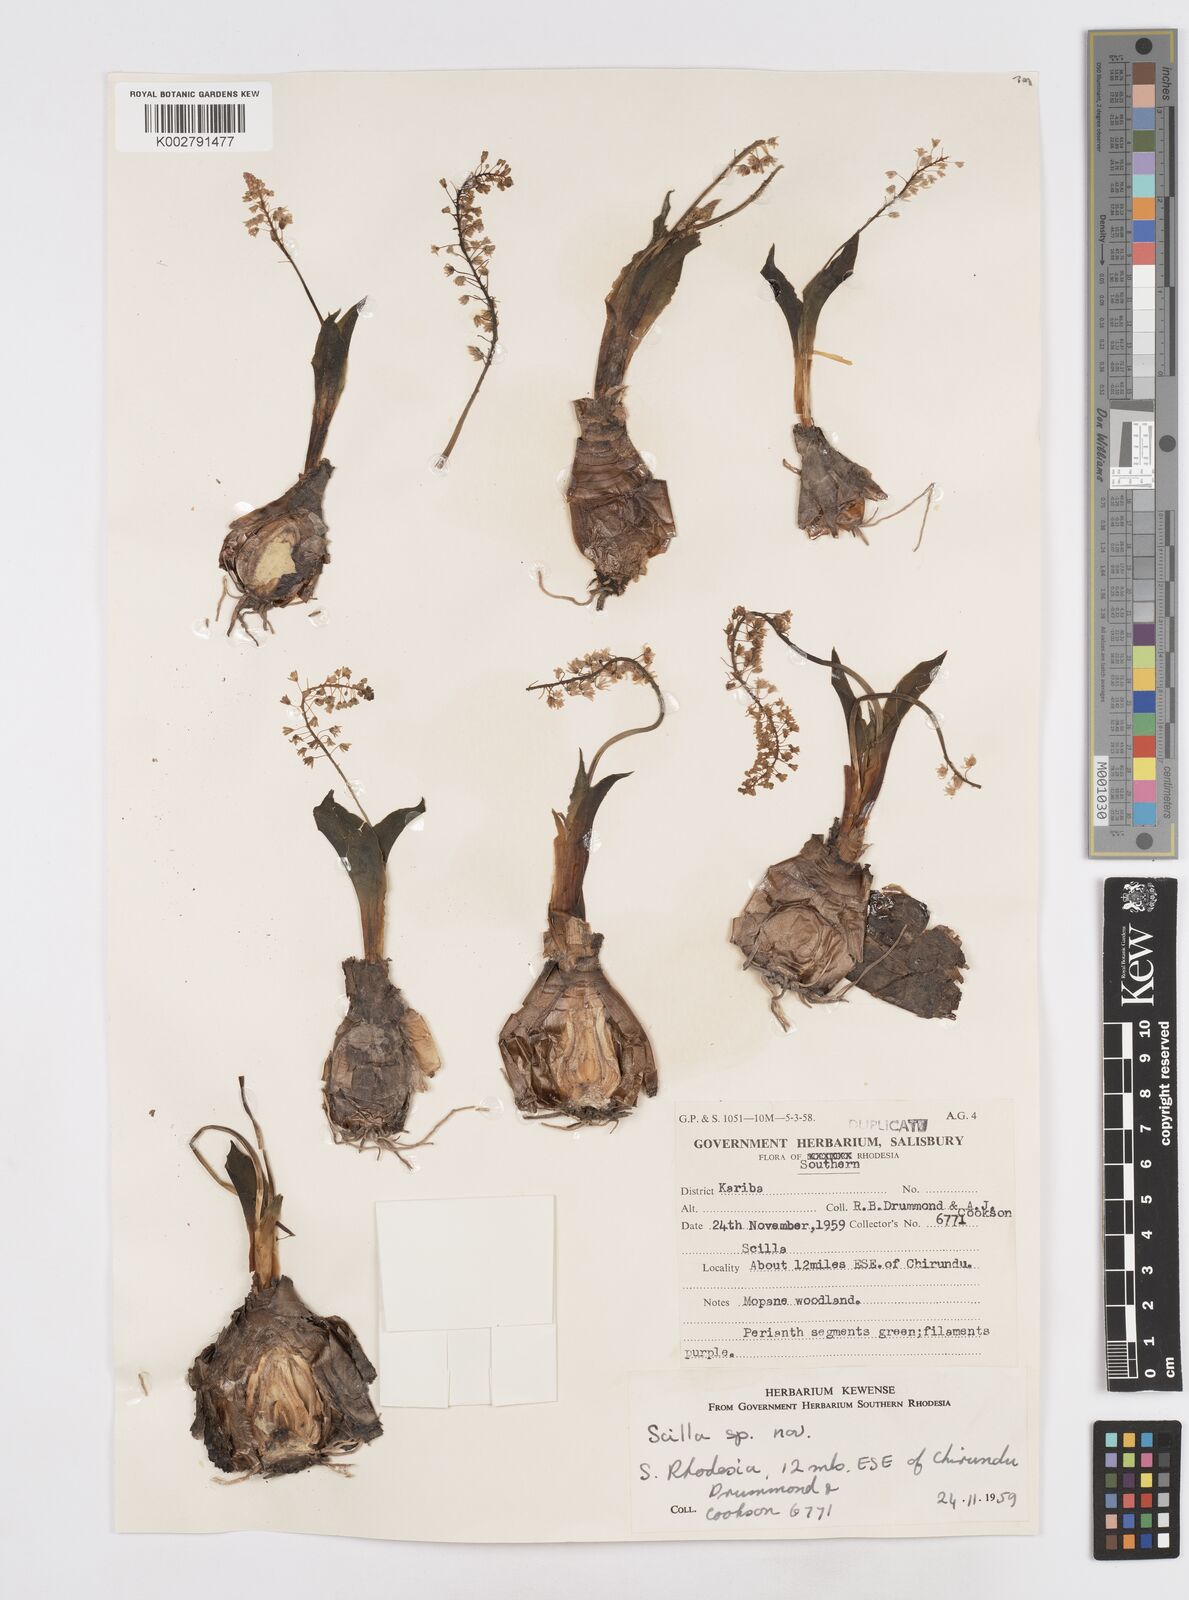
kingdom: Plantae
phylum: Tracheophyta
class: Liliopsida
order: Asparagales
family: Asparagaceae
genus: Scilla
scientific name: Scilla
